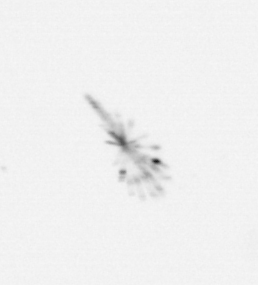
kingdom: Chromista
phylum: Ochrophyta
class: Bacillariophyceae
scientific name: Bacillariophyceae
